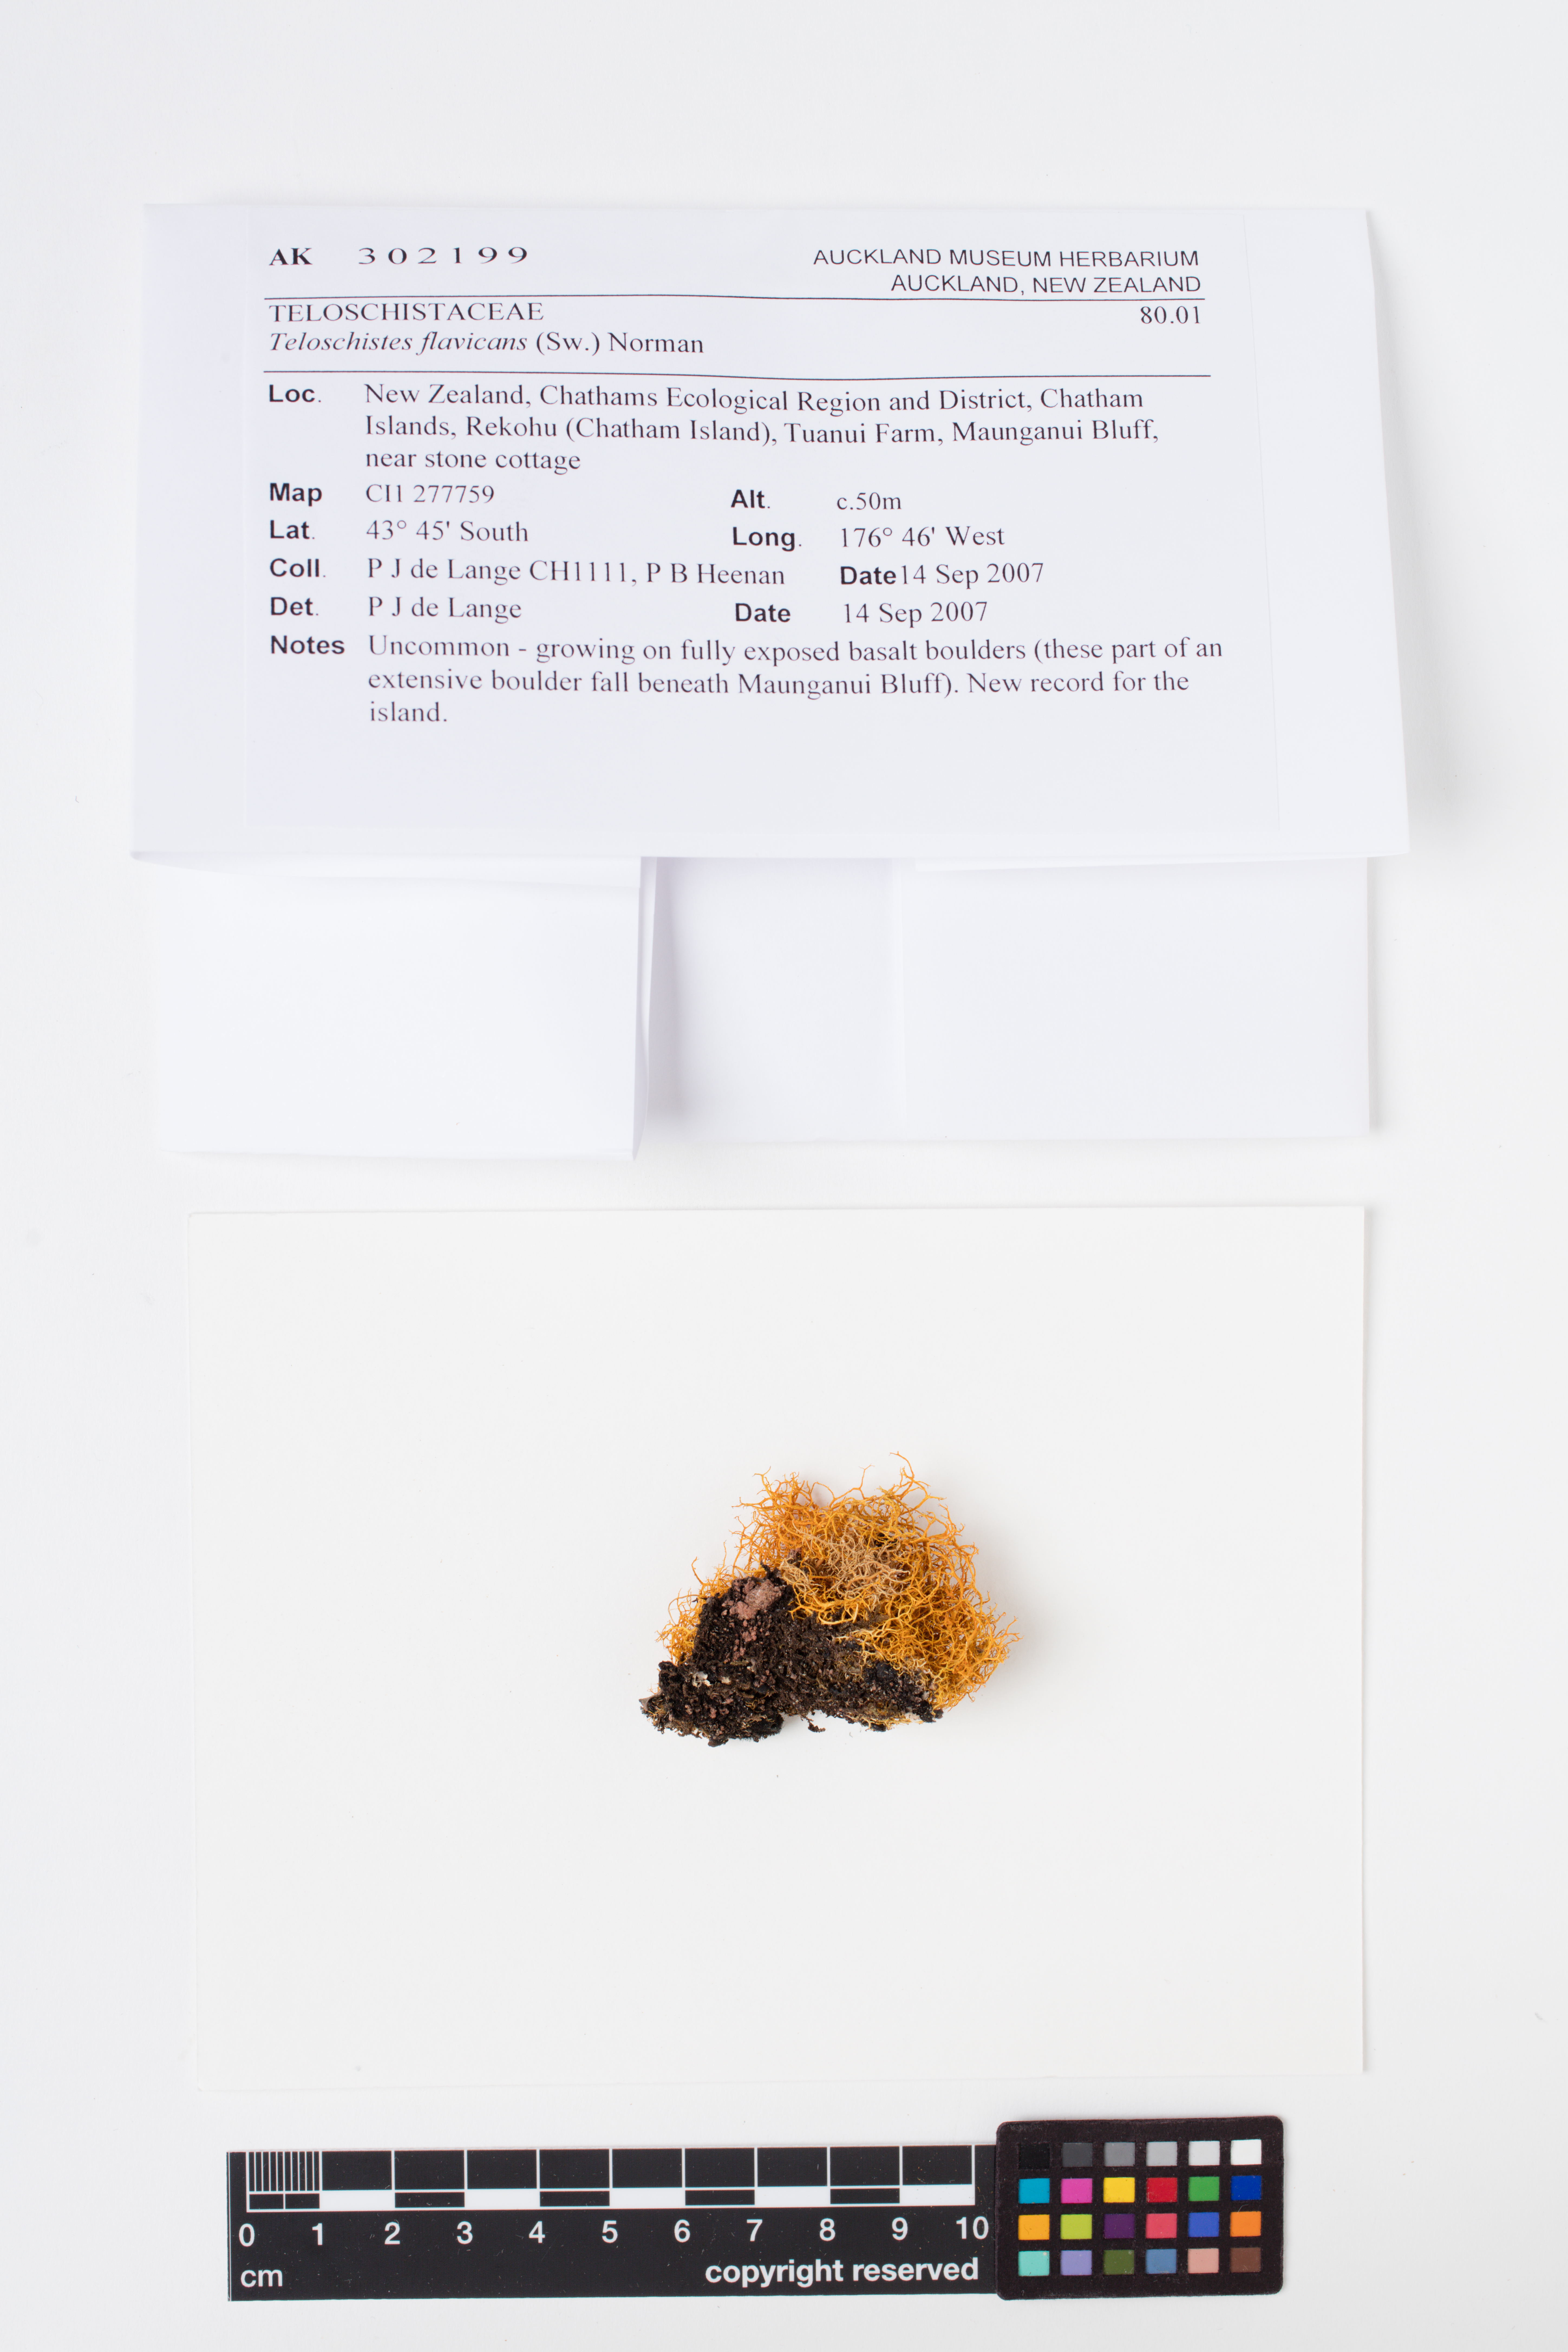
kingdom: Fungi
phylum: Ascomycota
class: Lecanoromycetes
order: Teloschistales
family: Teloschistaceae
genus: Teloschistes
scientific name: Teloschistes flavicans
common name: Golden hair-lichen
